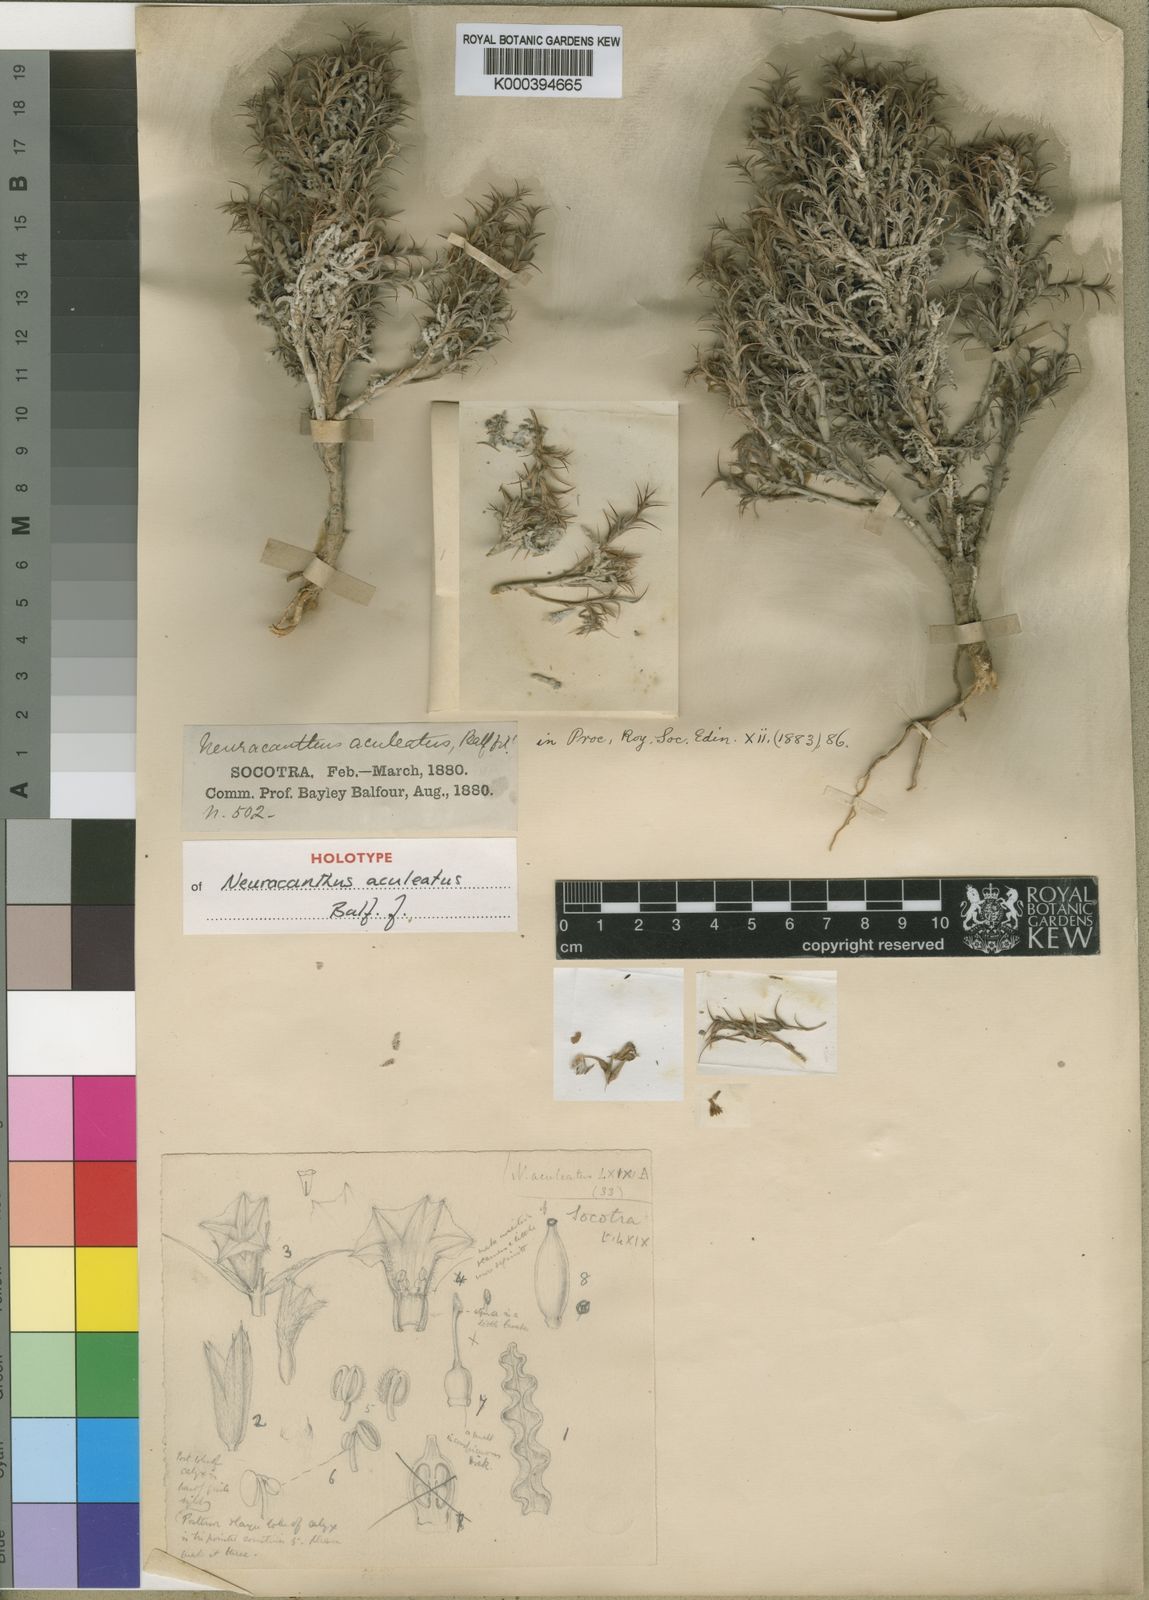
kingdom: Plantae
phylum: Tracheophyta
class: Magnoliopsida
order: Lamiales
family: Acanthaceae
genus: Neuracanthus
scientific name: Neuracanthus aculeatus
